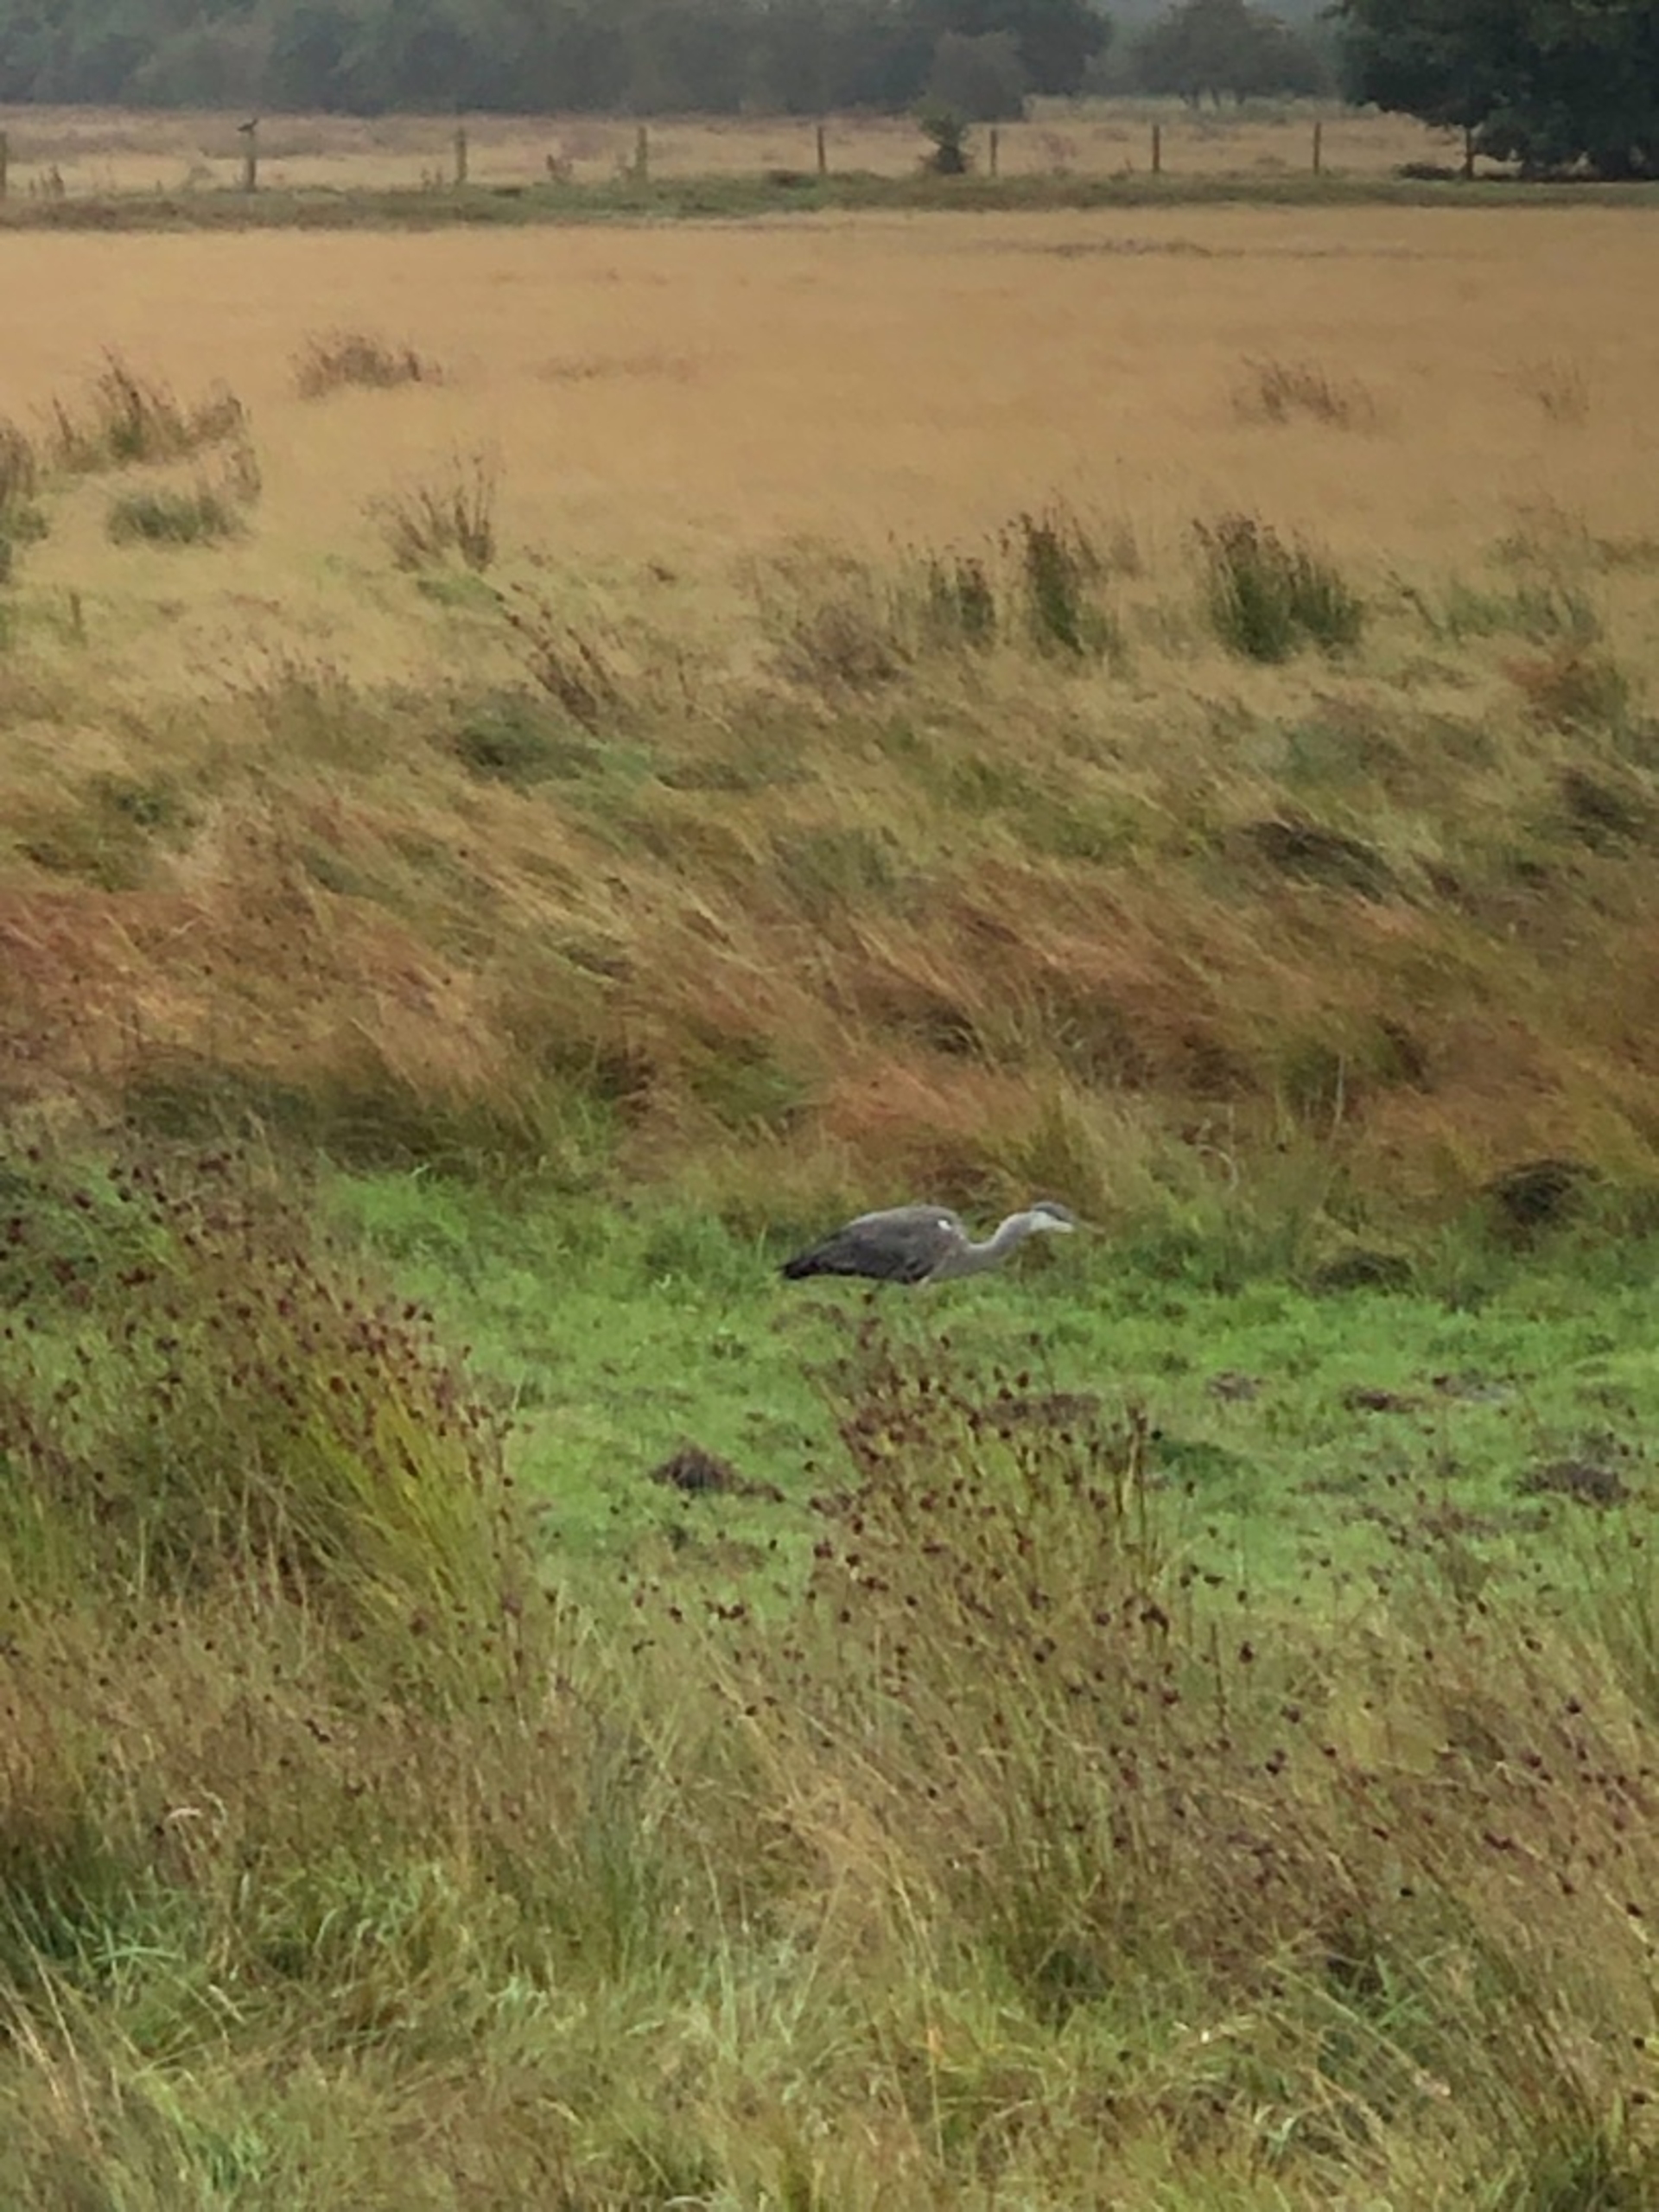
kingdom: Animalia
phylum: Chordata
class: Aves
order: Pelecaniformes
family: Ardeidae
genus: Ardea
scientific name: Ardea cinerea
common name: Fiskehejre
